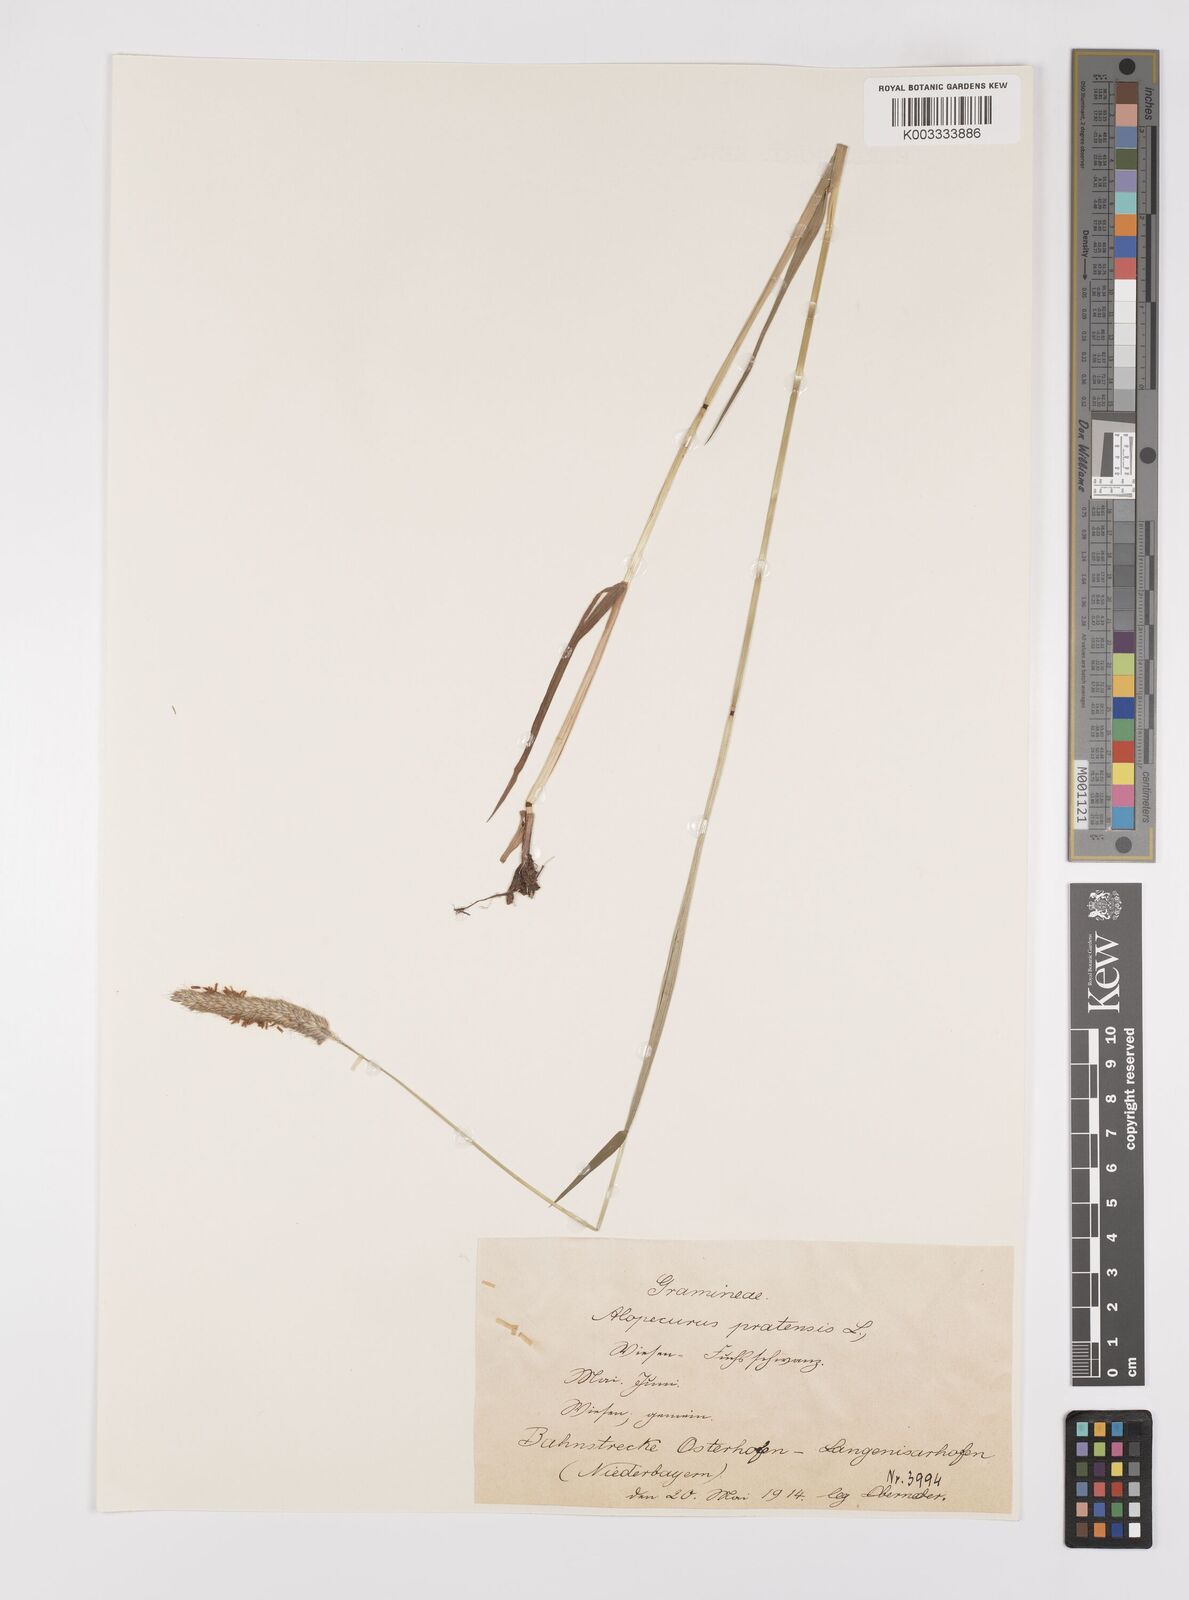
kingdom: Plantae
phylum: Tracheophyta
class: Liliopsida
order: Poales
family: Poaceae
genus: Alopecurus
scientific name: Alopecurus pratensis
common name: Meadow foxtail
